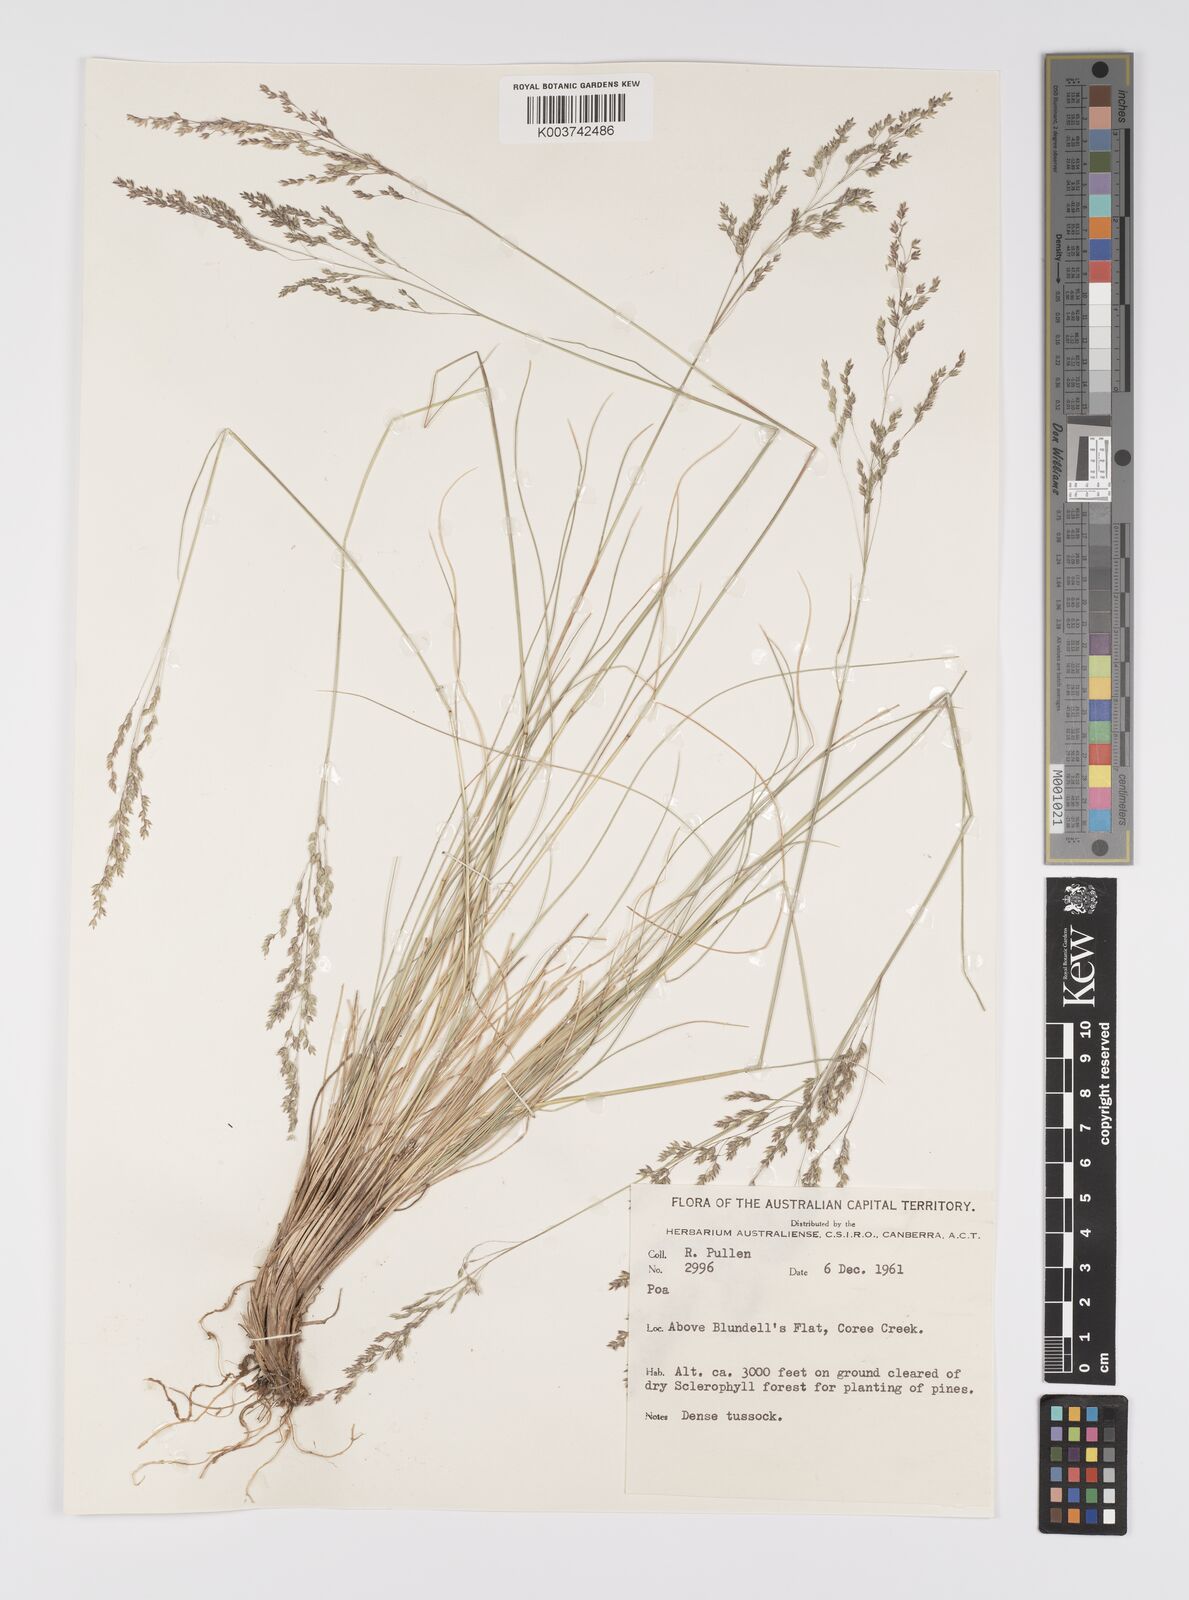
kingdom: Plantae
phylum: Tracheophyta
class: Liliopsida
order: Poales
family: Poaceae
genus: Poa
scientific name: Poa
